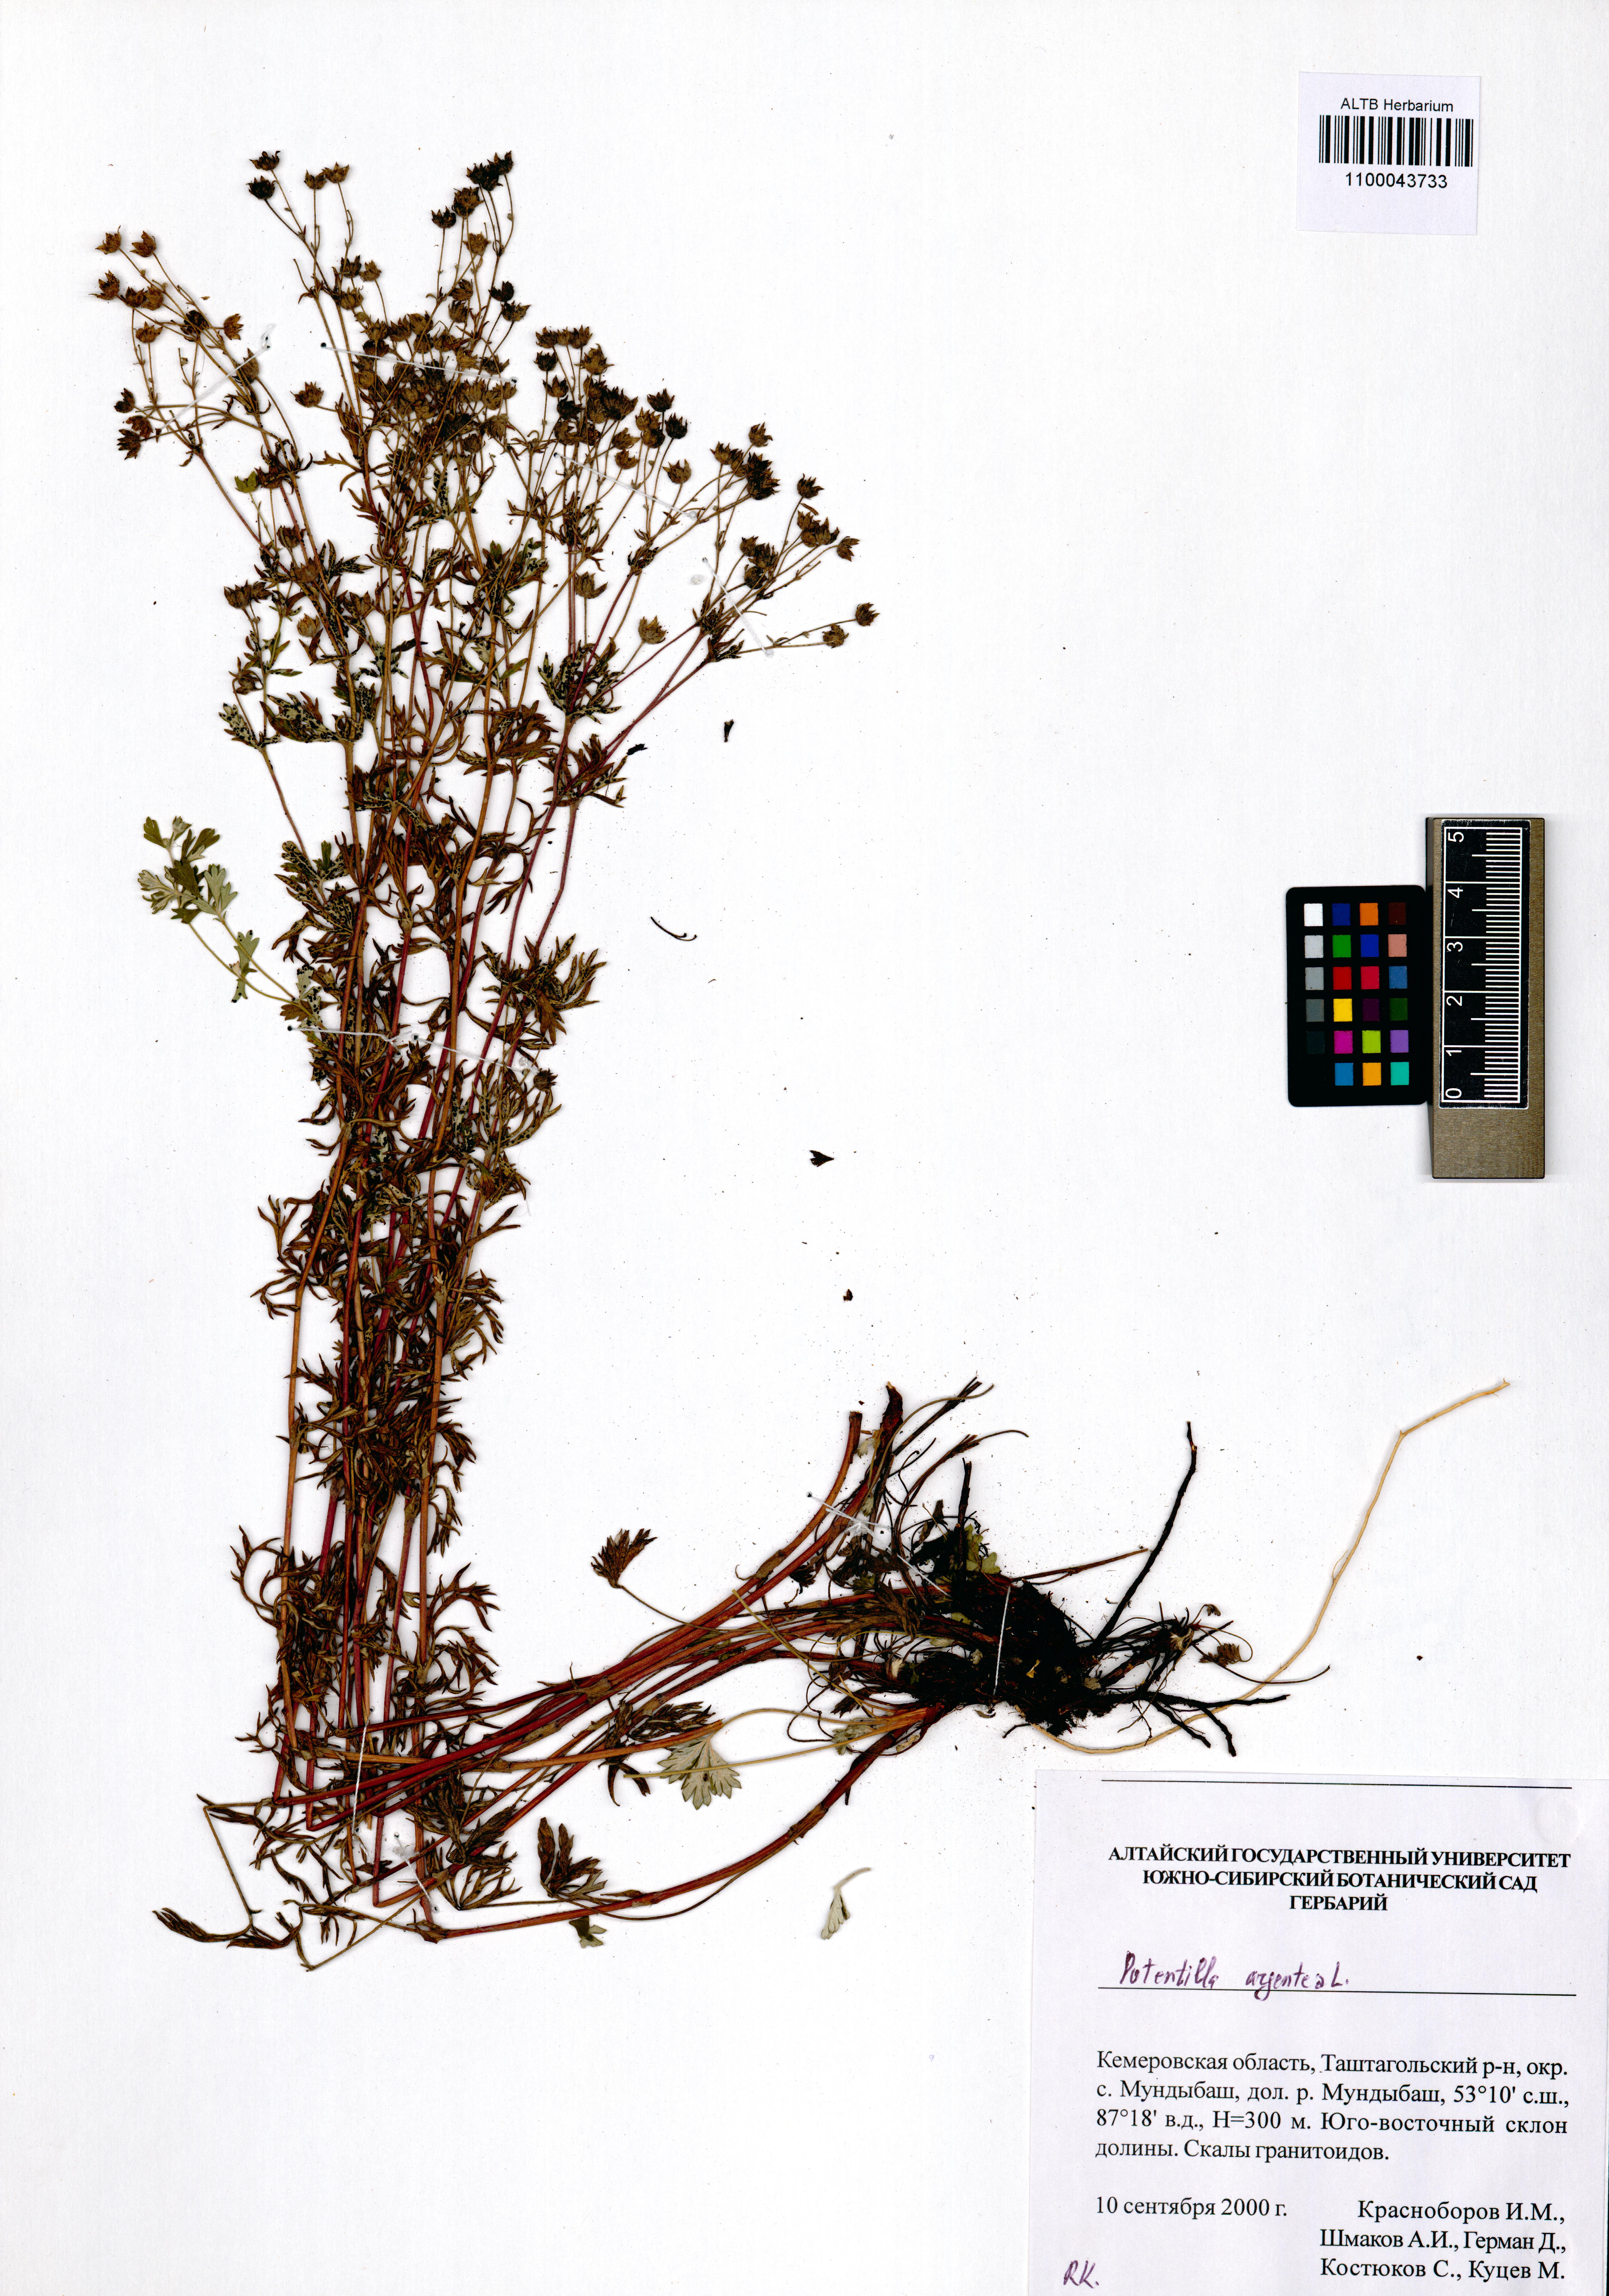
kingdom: Plantae
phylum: Tracheophyta
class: Magnoliopsida
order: Rosales
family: Rosaceae
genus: Potentilla
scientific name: Potentilla argentea
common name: Hoary cinquefoil
